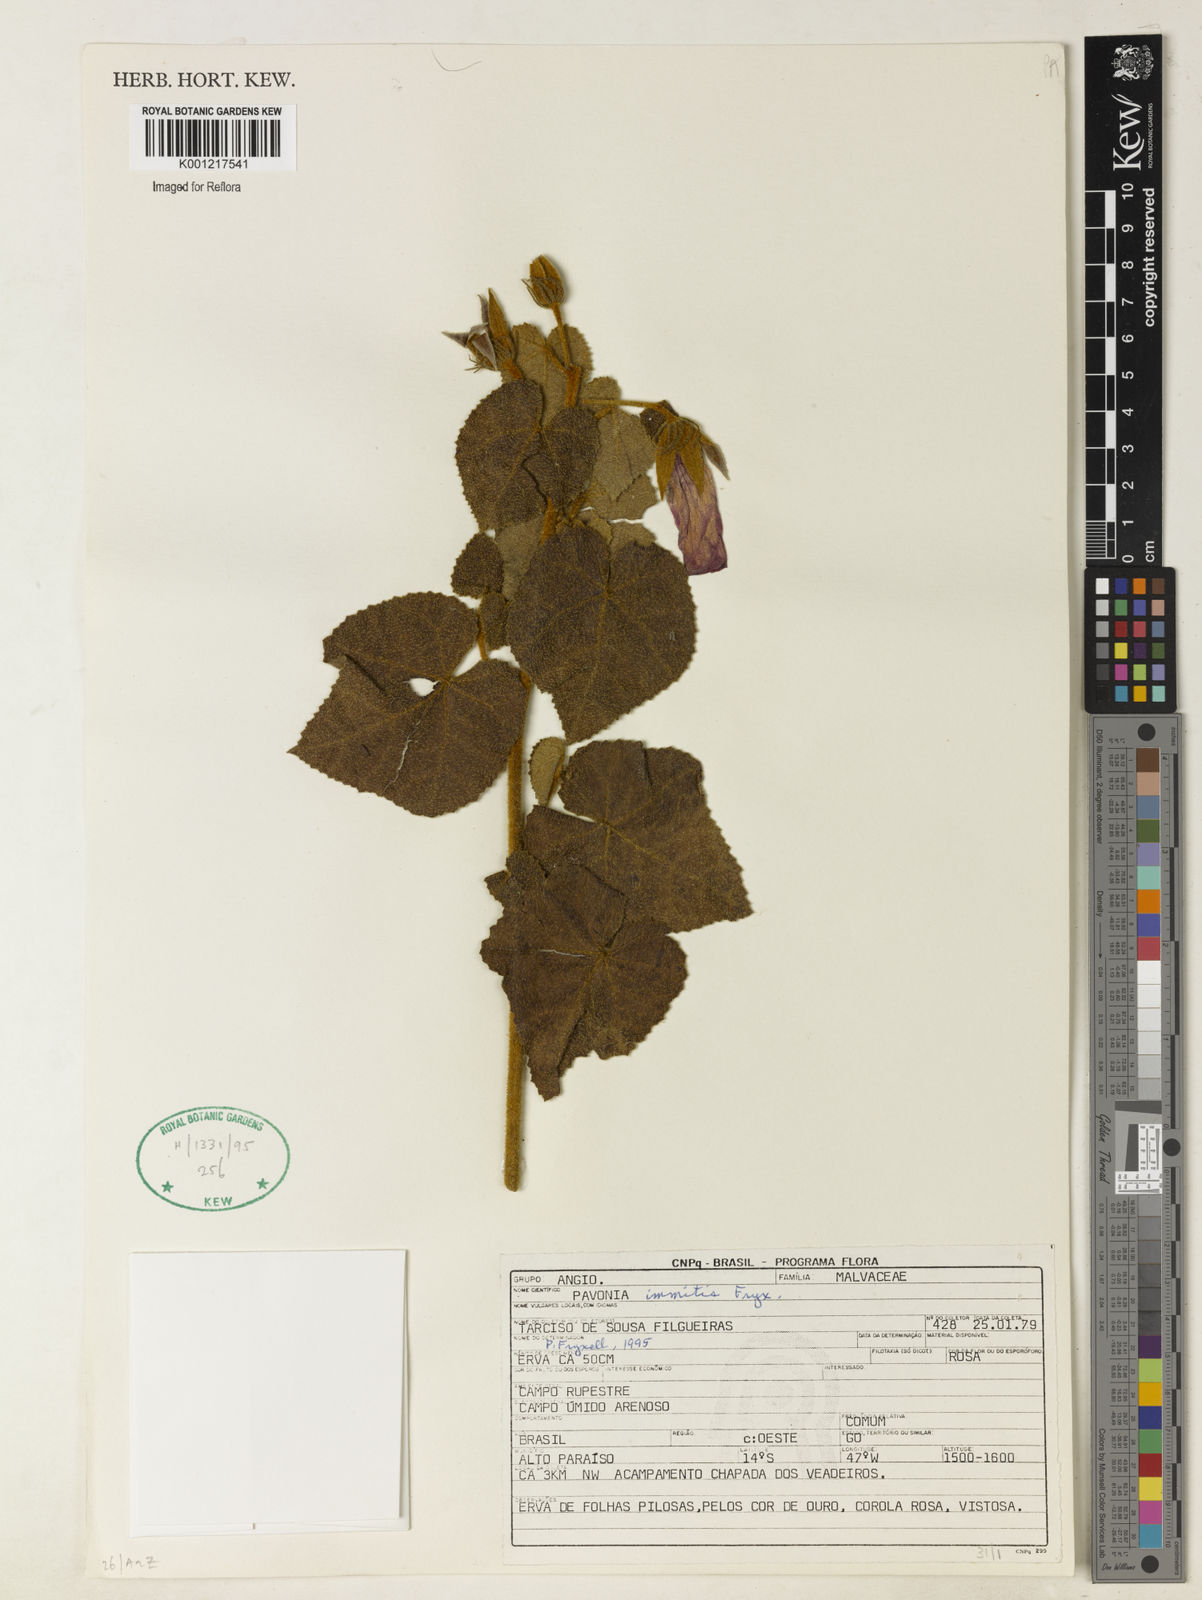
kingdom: Plantae
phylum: Tracheophyta
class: Magnoliopsida
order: Malvales
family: Malvaceae
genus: Pavonia
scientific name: Pavonia immitis
